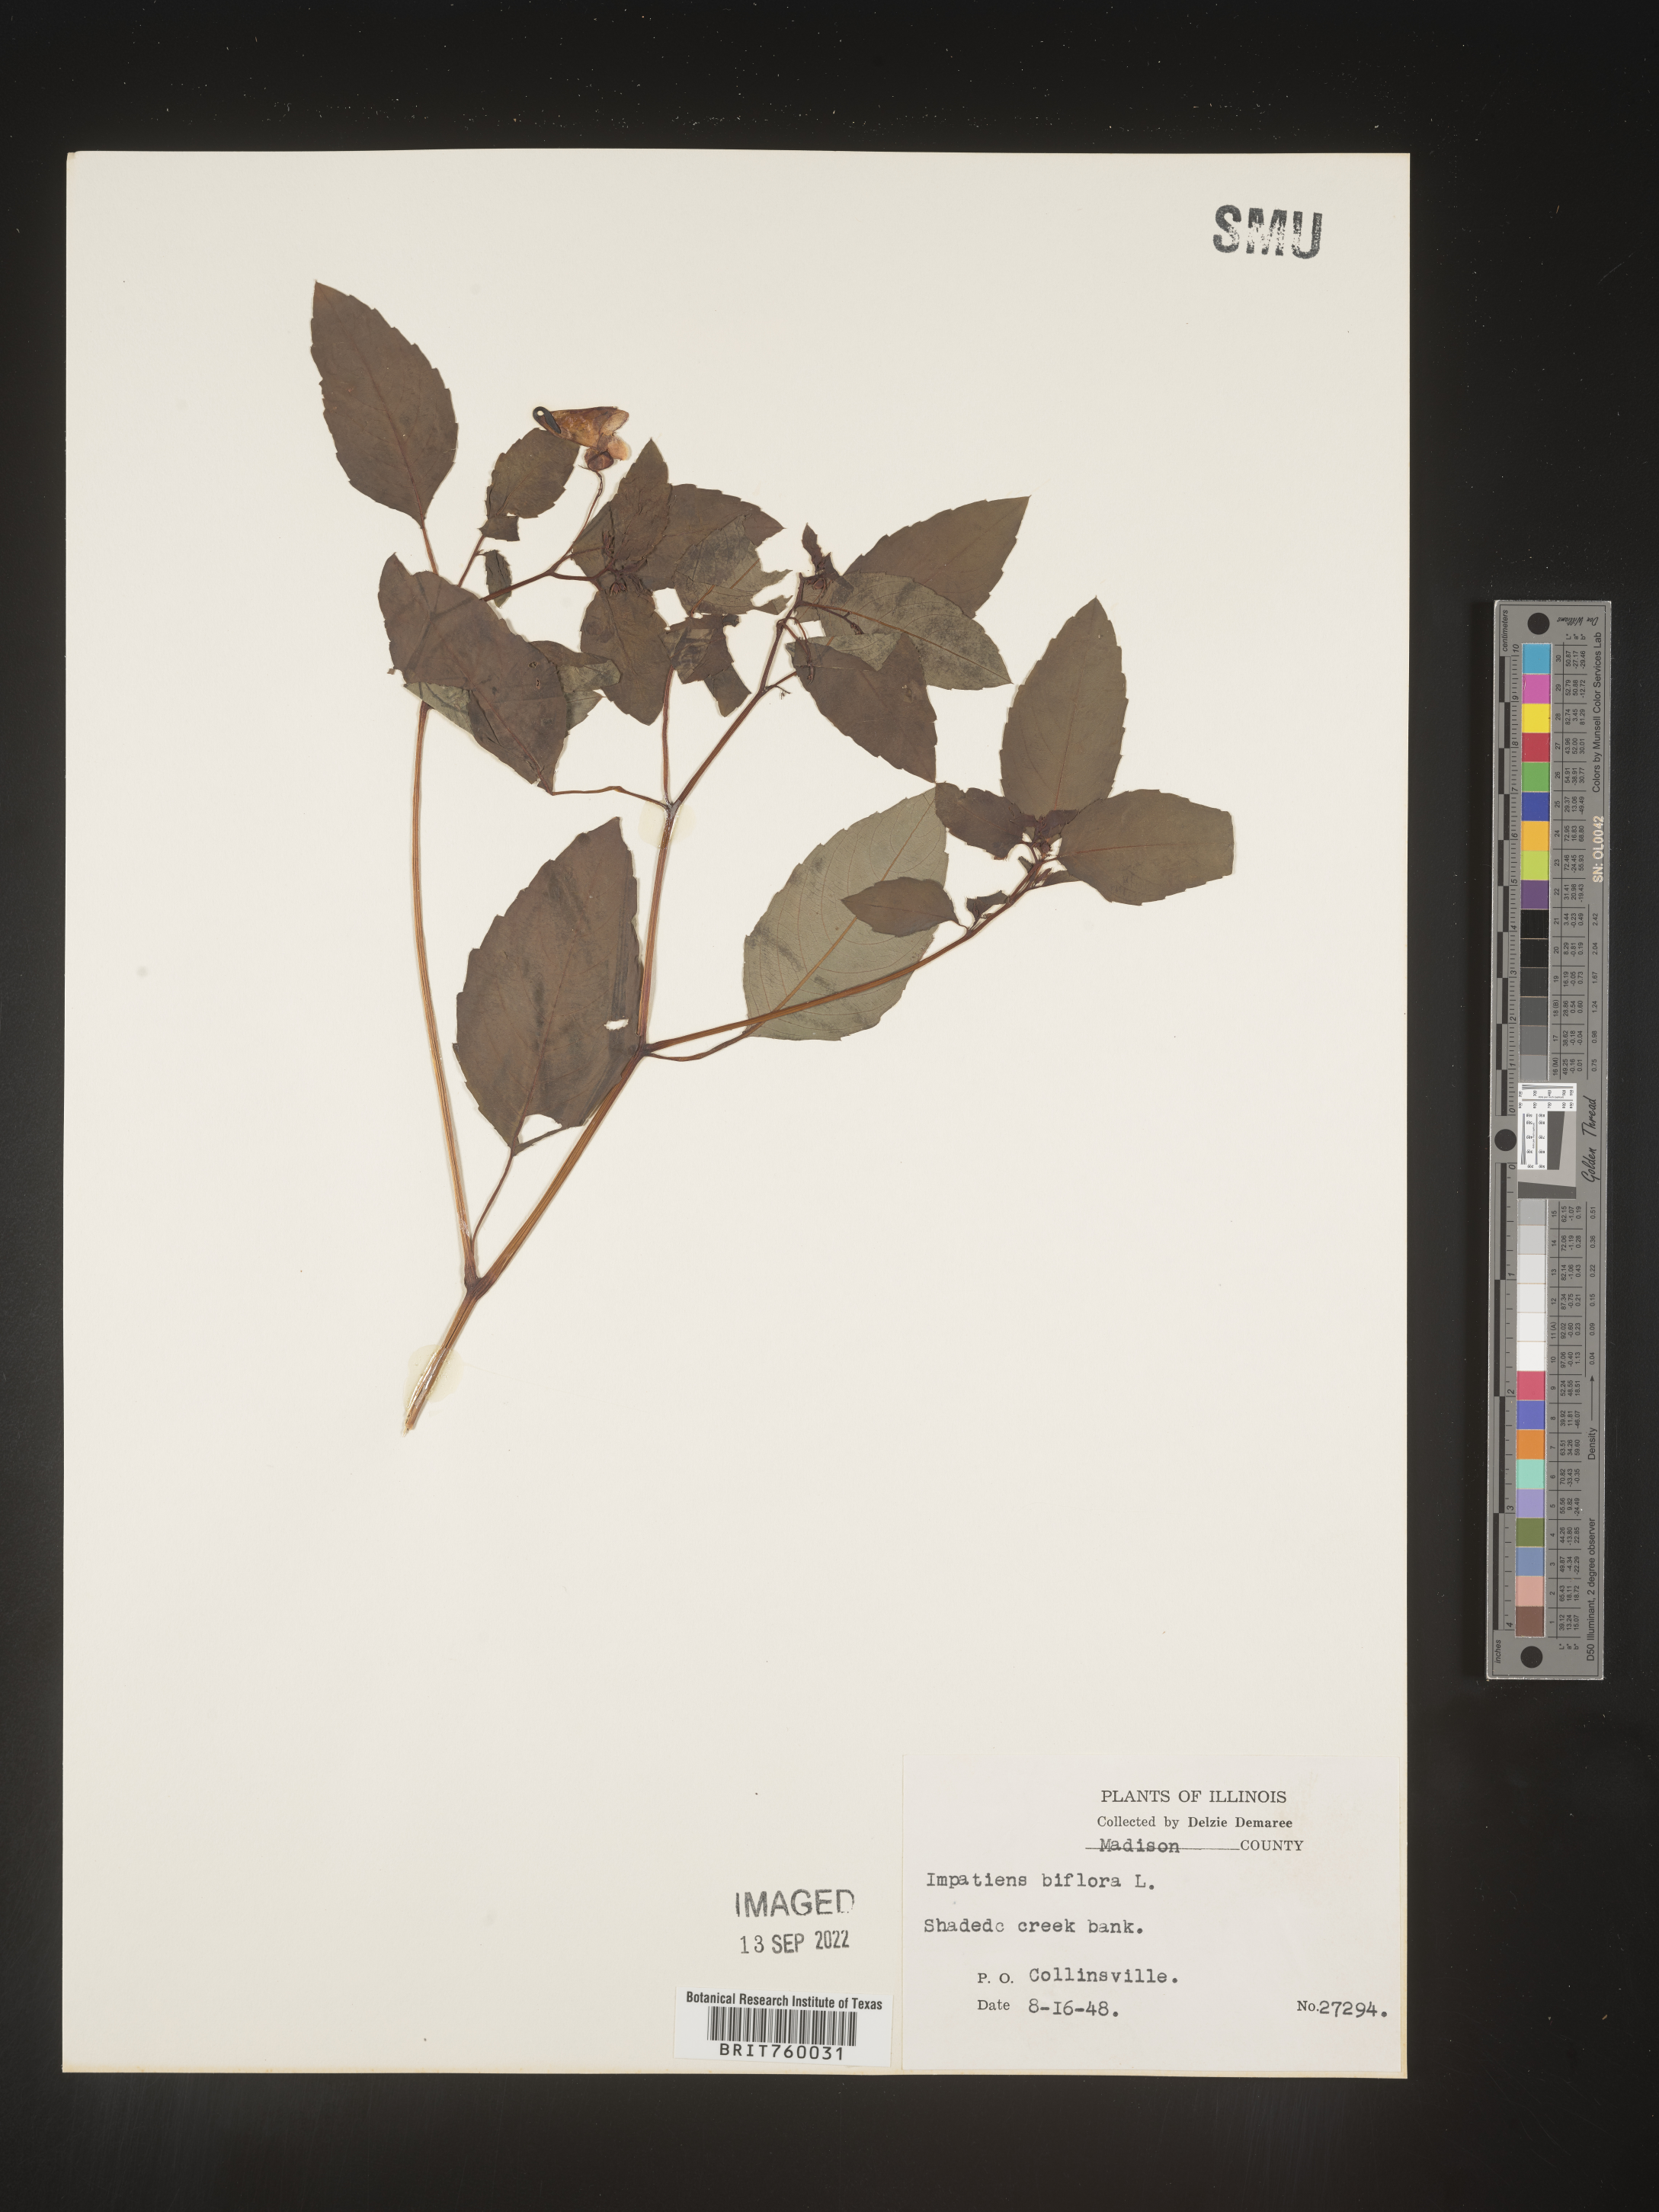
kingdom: Plantae
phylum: Tracheophyta
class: Magnoliopsida
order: Ericales
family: Balsaminaceae
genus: Impatiens
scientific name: Impatiens capensis
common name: Orange balsam
